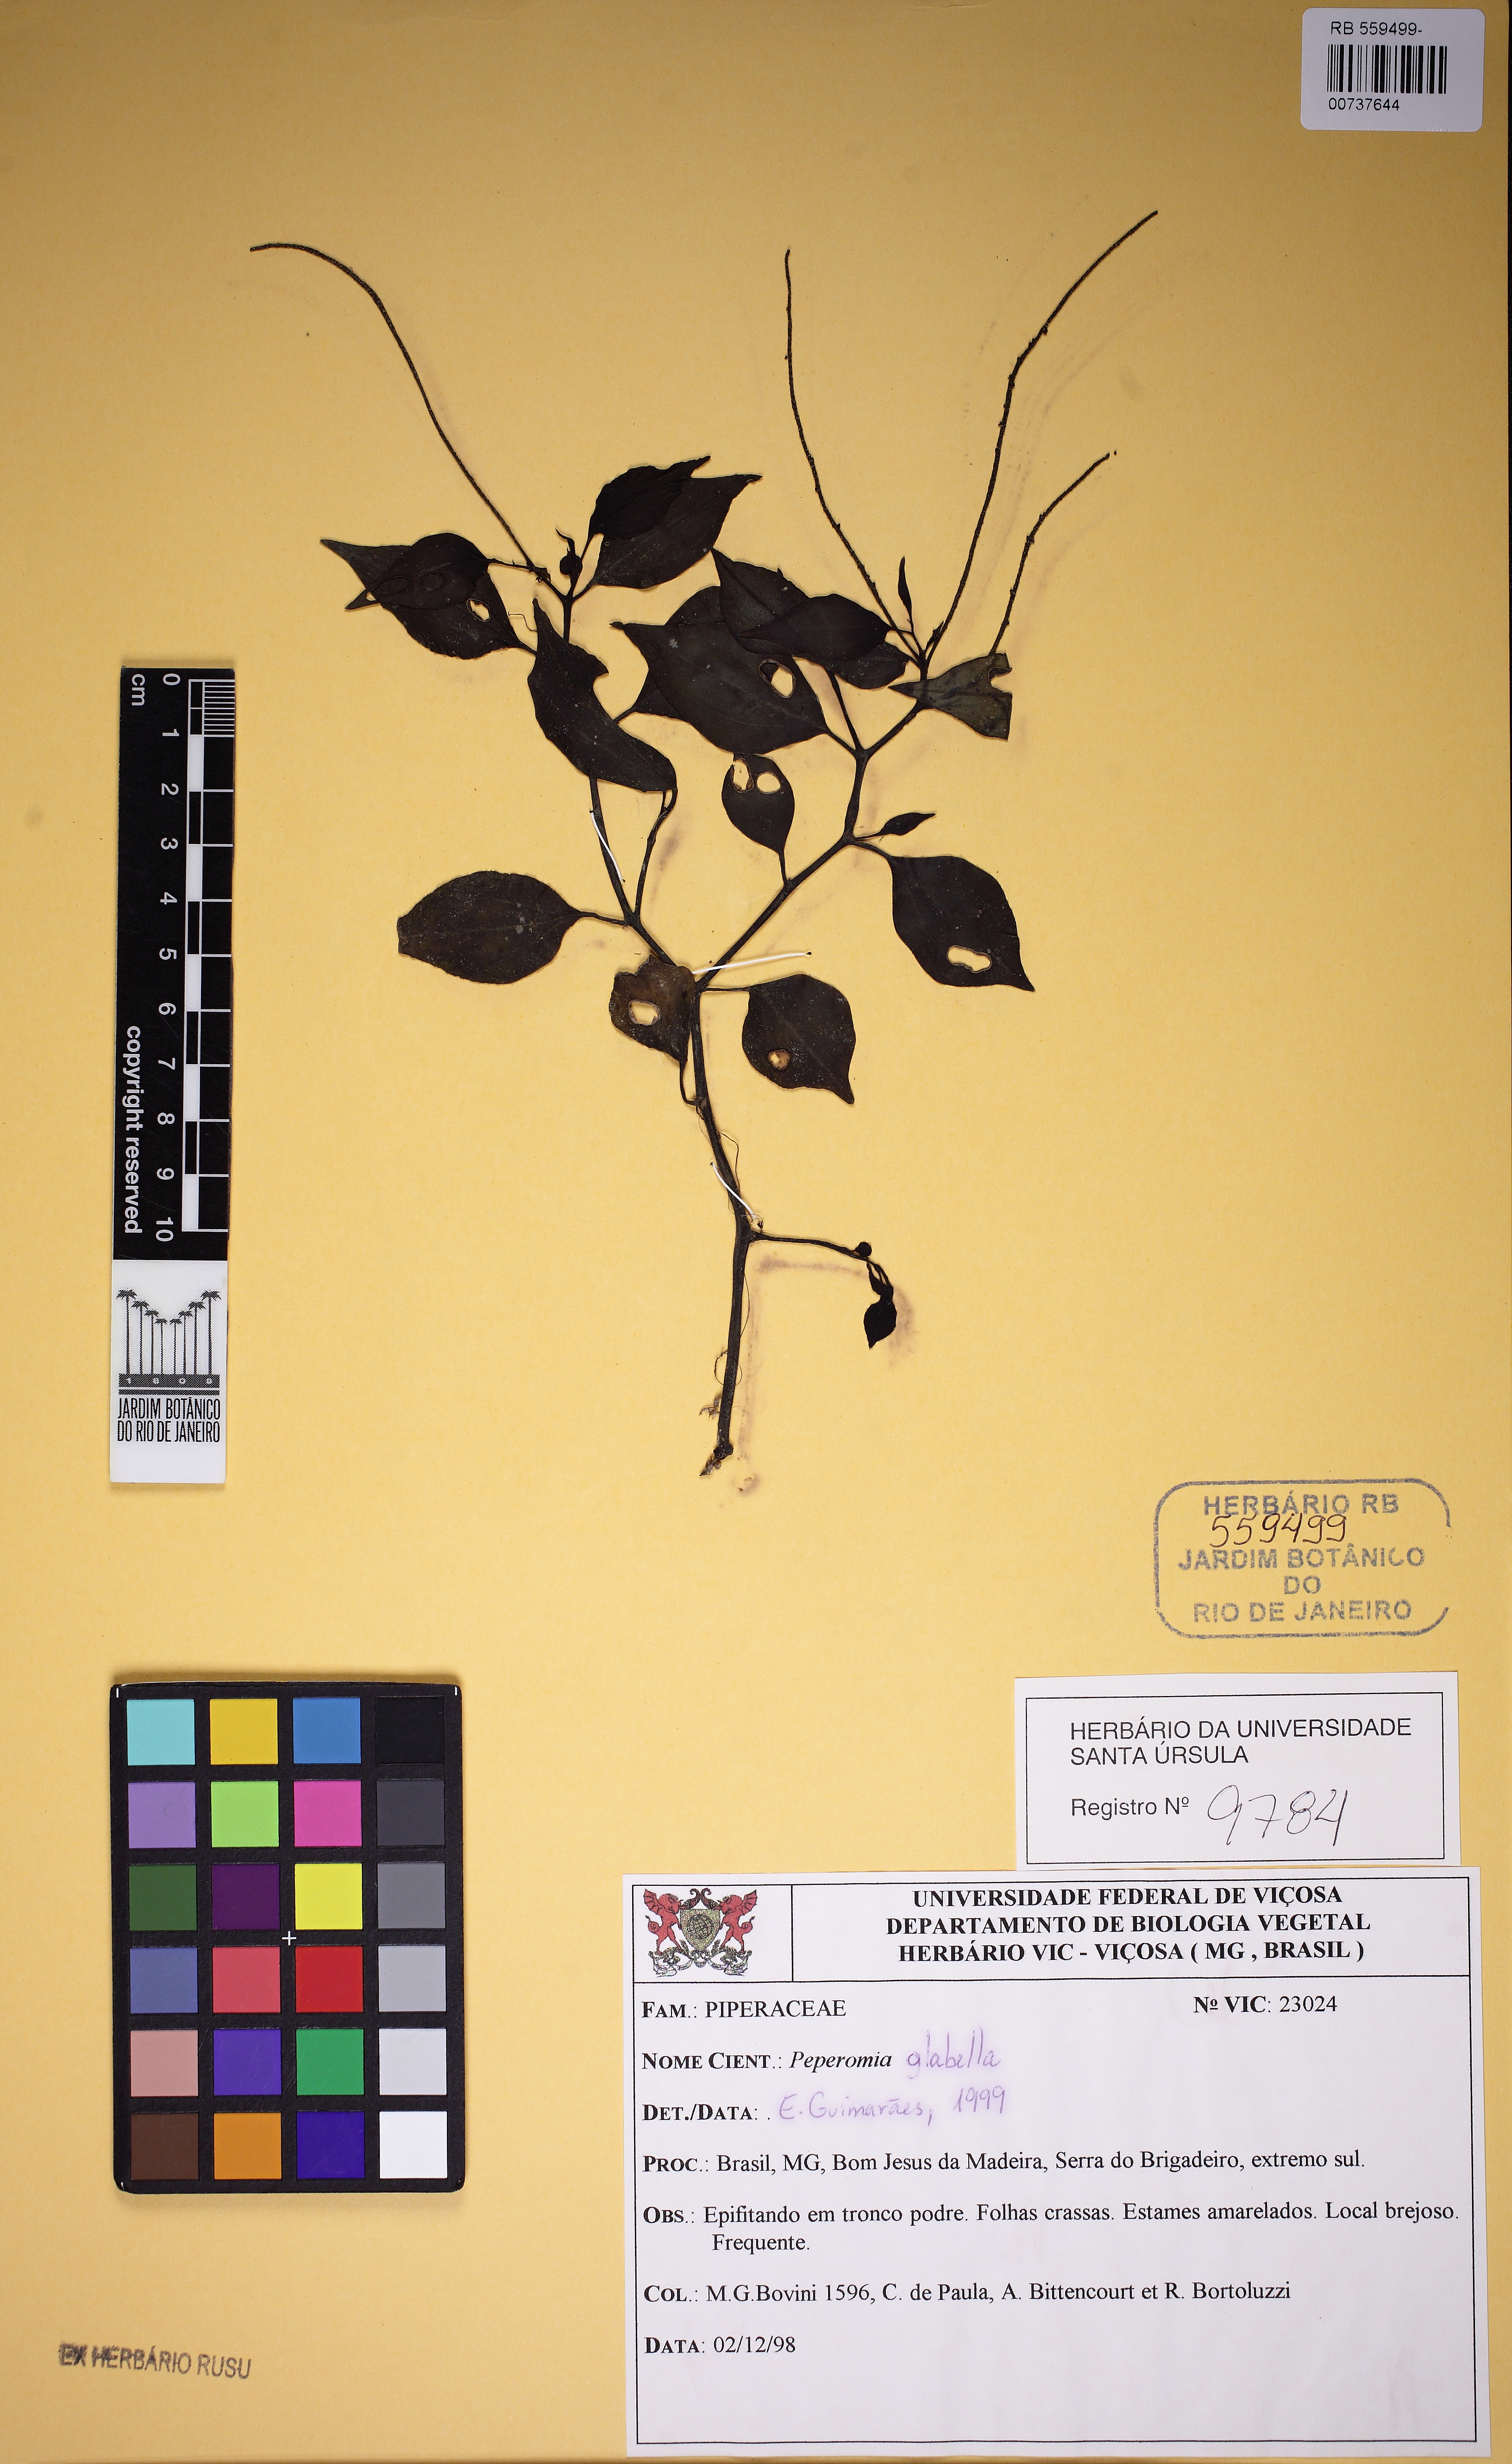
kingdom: Plantae
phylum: Tracheophyta
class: Magnoliopsida
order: Piperales
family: Piperaceae
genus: Peperomia
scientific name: Peperomia glabella
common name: Cypress peperomia
